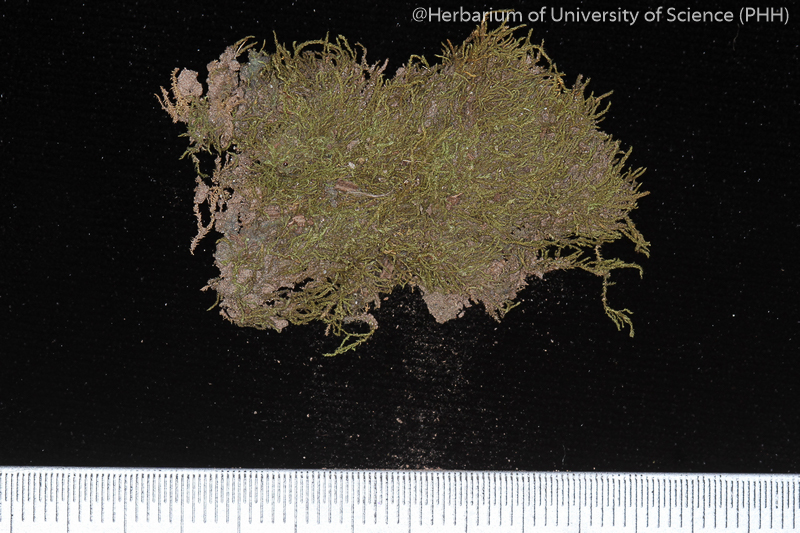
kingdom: Plantae
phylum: Bryophyta
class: Bryopsida
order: Hypnales
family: Leskeaceae
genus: Haplocladium
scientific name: Haplocladium larminatii
